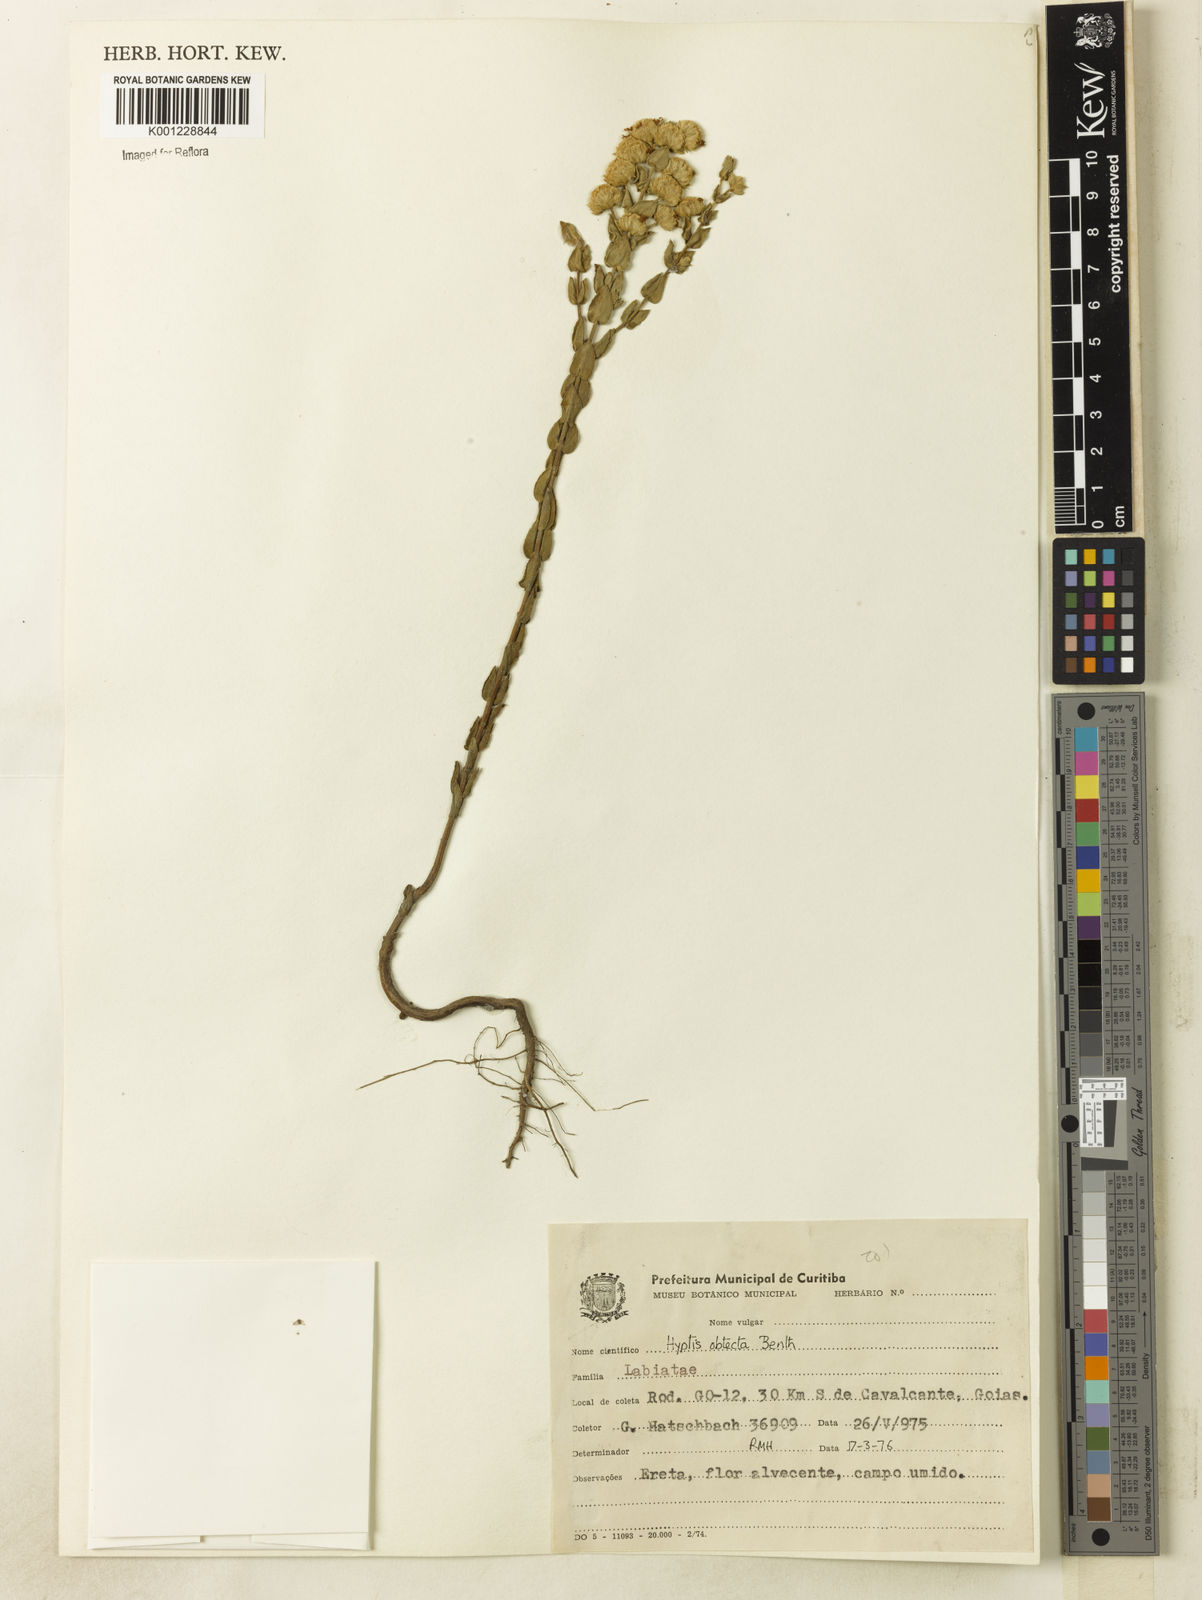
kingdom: Plantae
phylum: Tracheophyta
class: Magnoliopsida
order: Lamiales
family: Lamiaceae
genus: Hyptis
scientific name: Hyptis obtecta
